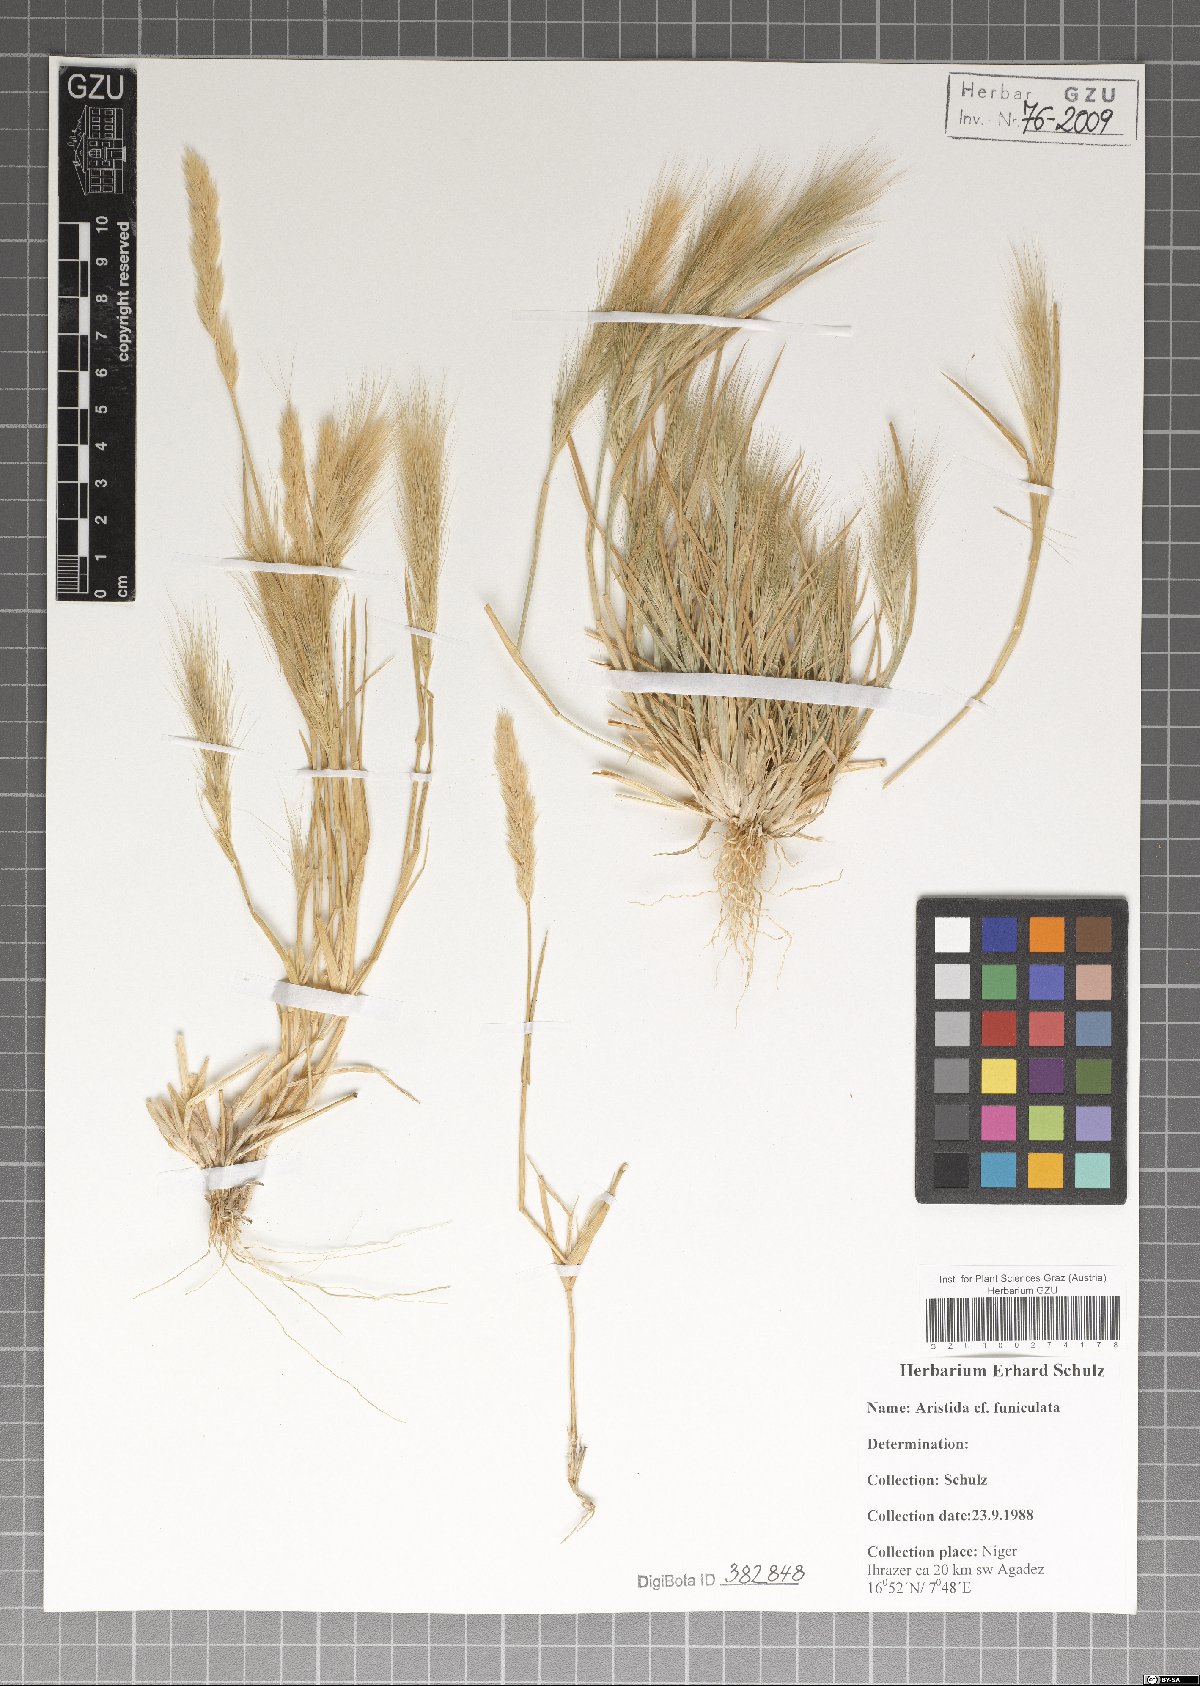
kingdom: Plantae
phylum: Tracheophyta
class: Liliopsida
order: Poales
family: Poaceae
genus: Aristida
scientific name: Aristida funiculata
